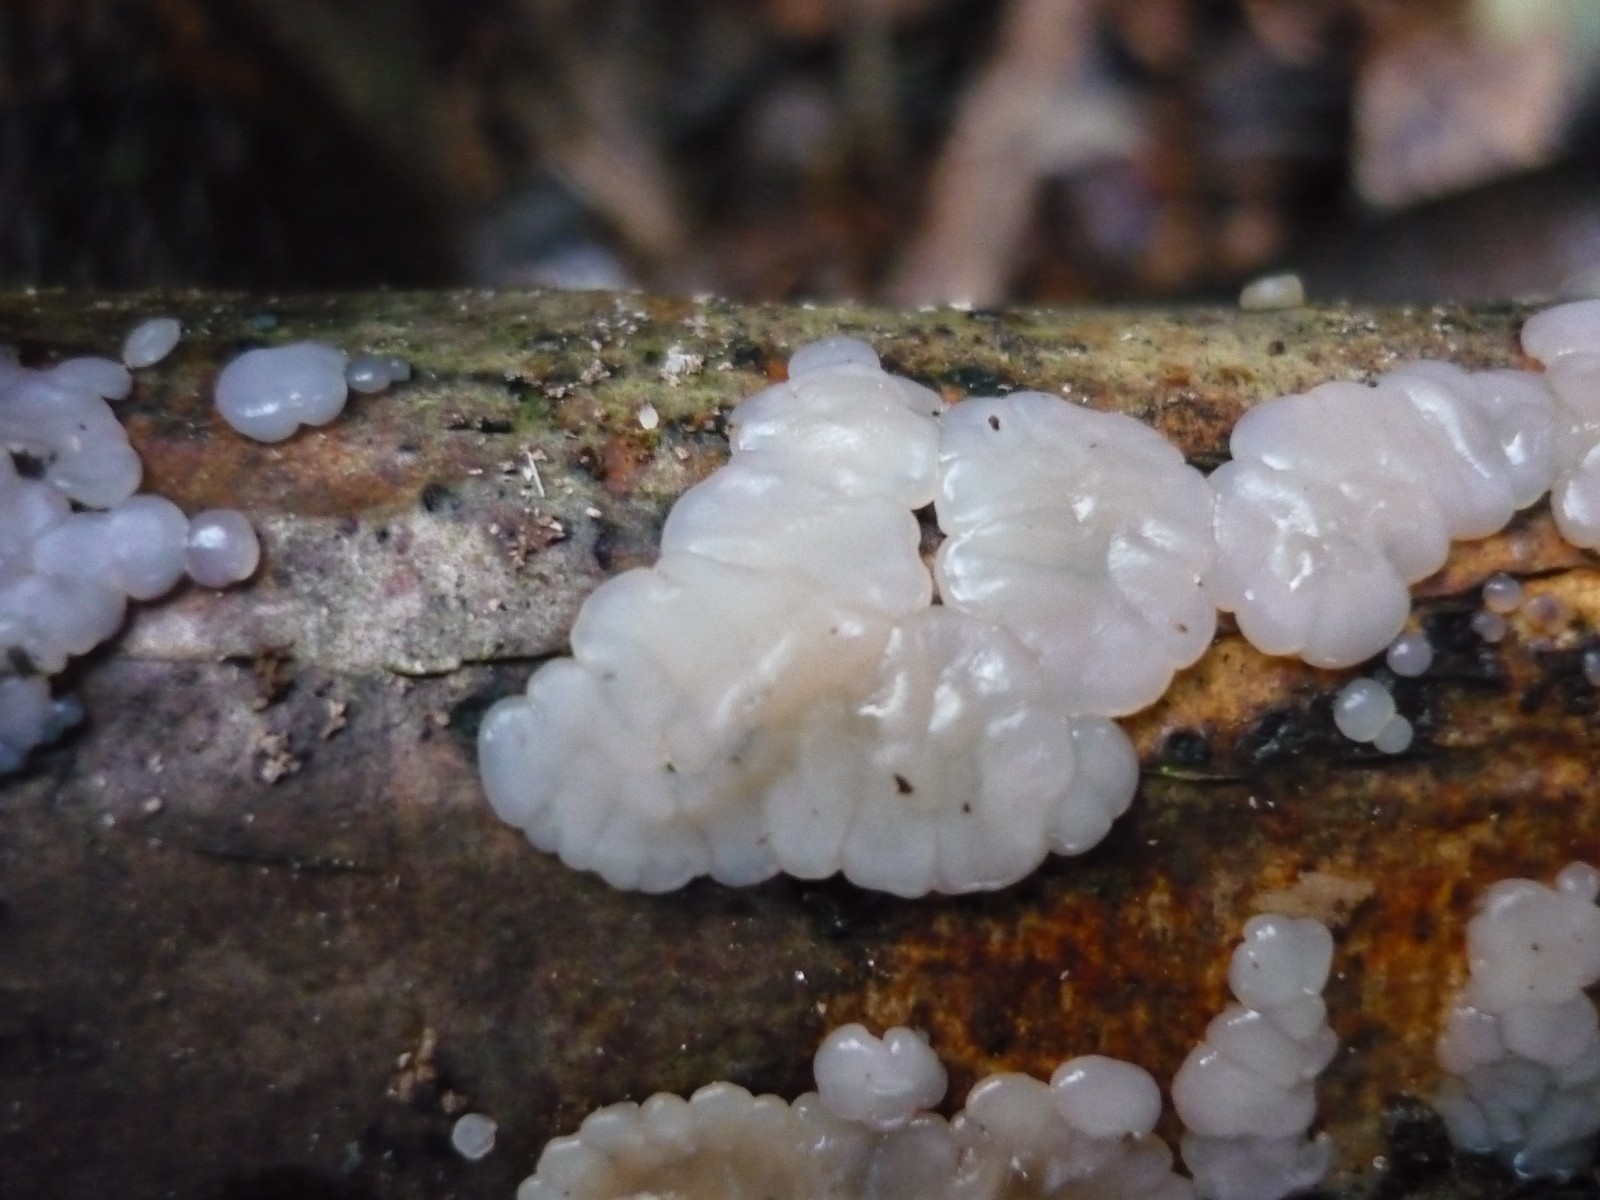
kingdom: Fungi
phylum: Basidiomycota
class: Agaricomycetes
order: Auriculariales
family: Auriculariaceae
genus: Exidia
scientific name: Exidia thuretiana
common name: hvidlig bævretop
